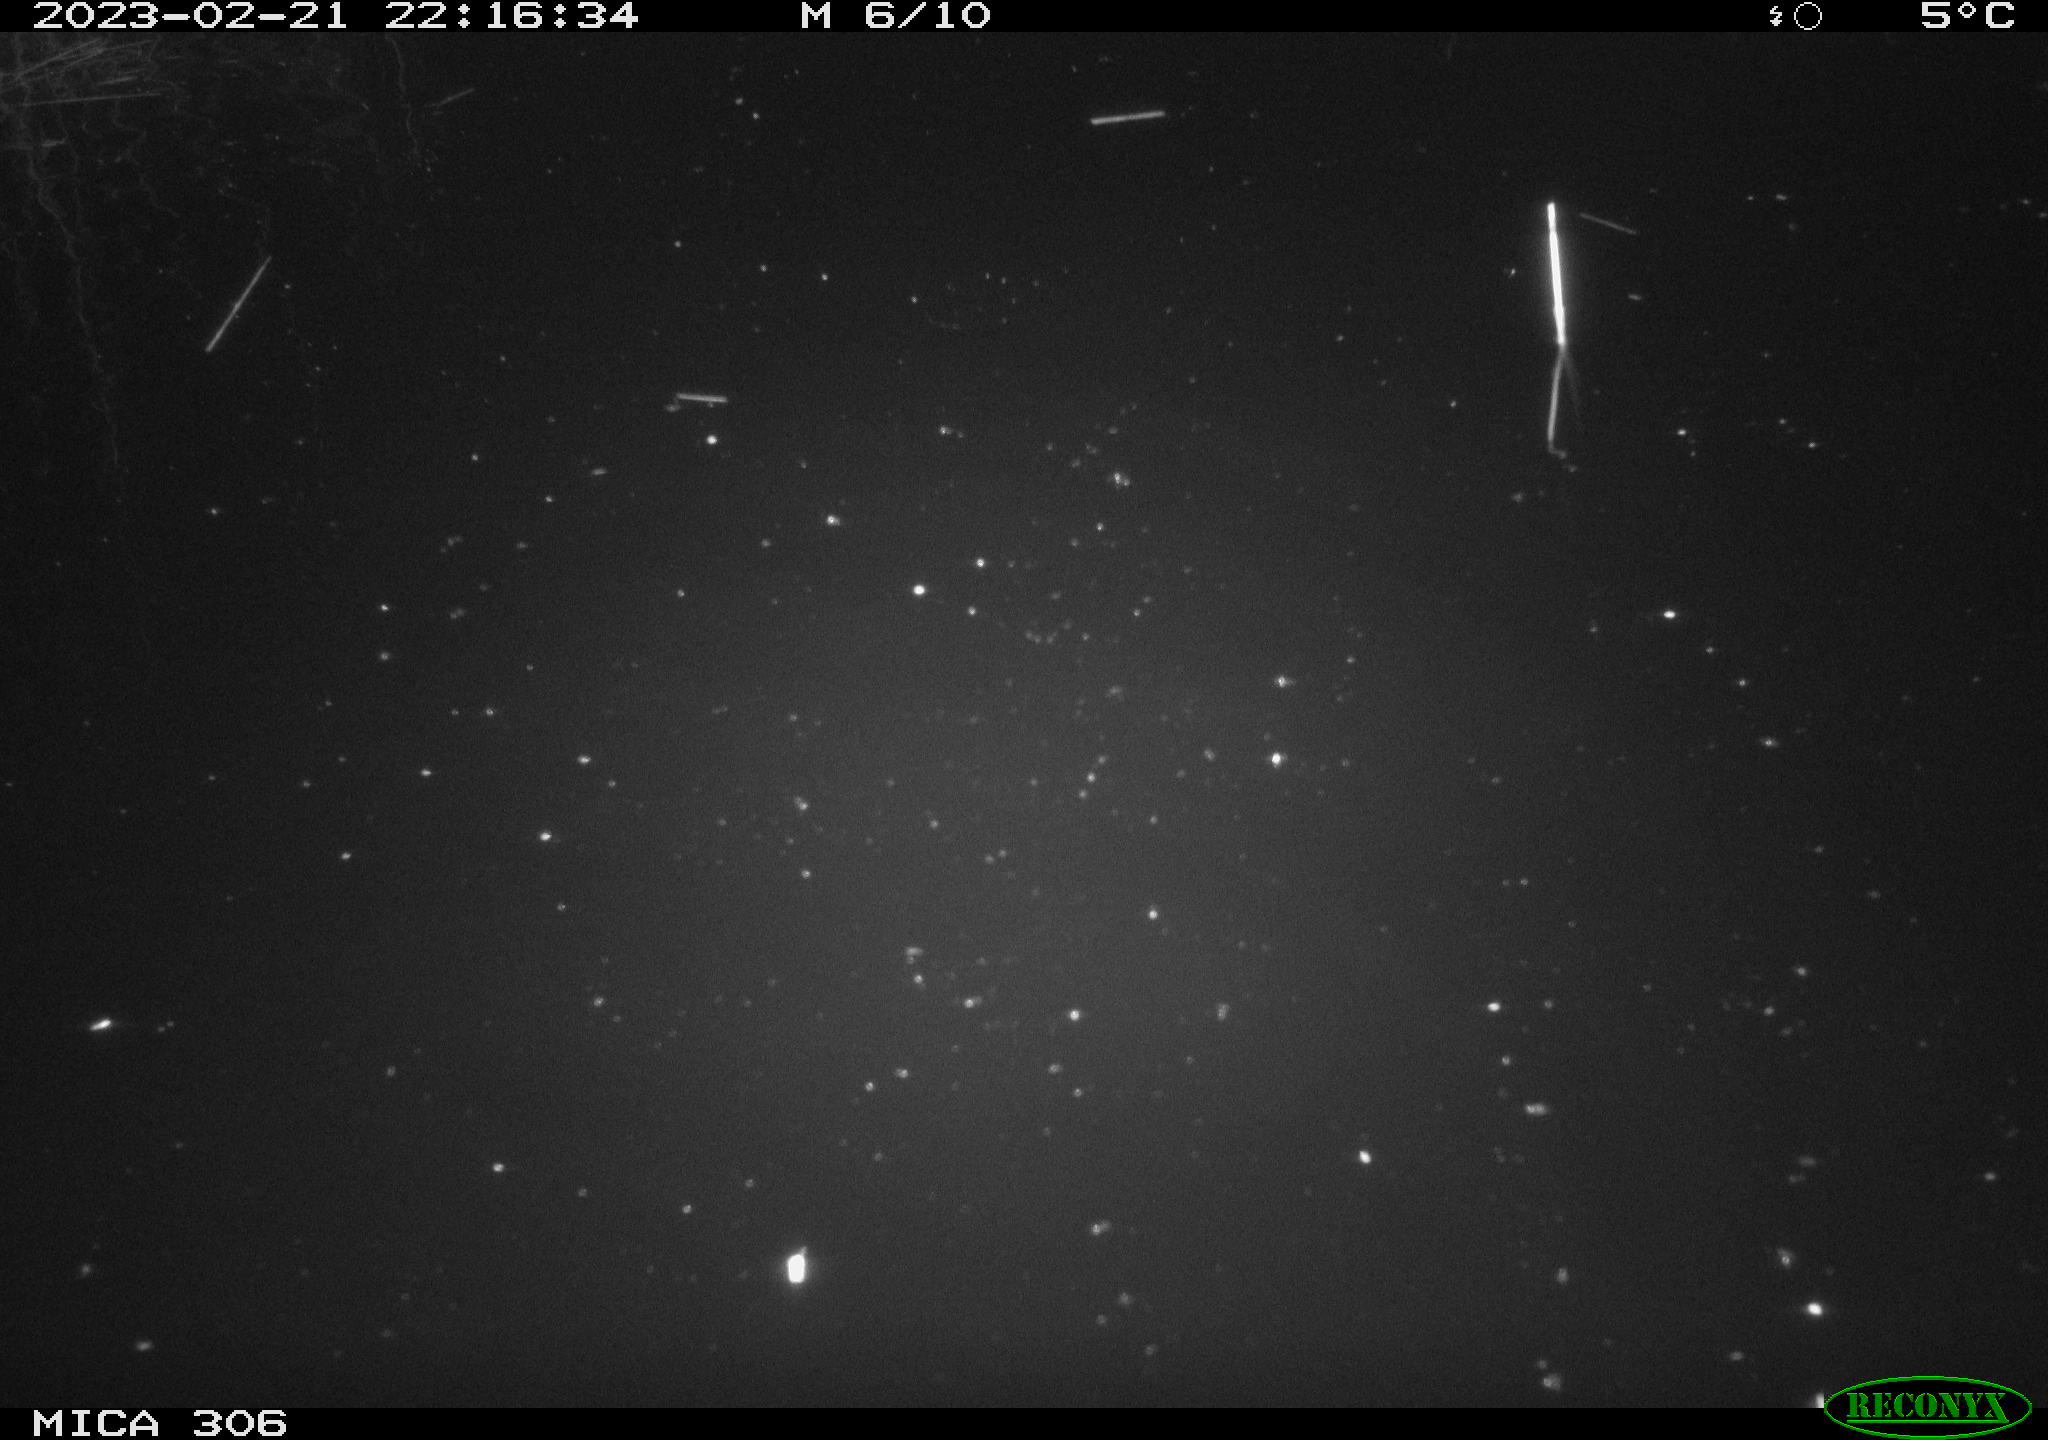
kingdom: Animalia
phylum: Chordata
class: Mammalia
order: Rodentia
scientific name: Rodentia
